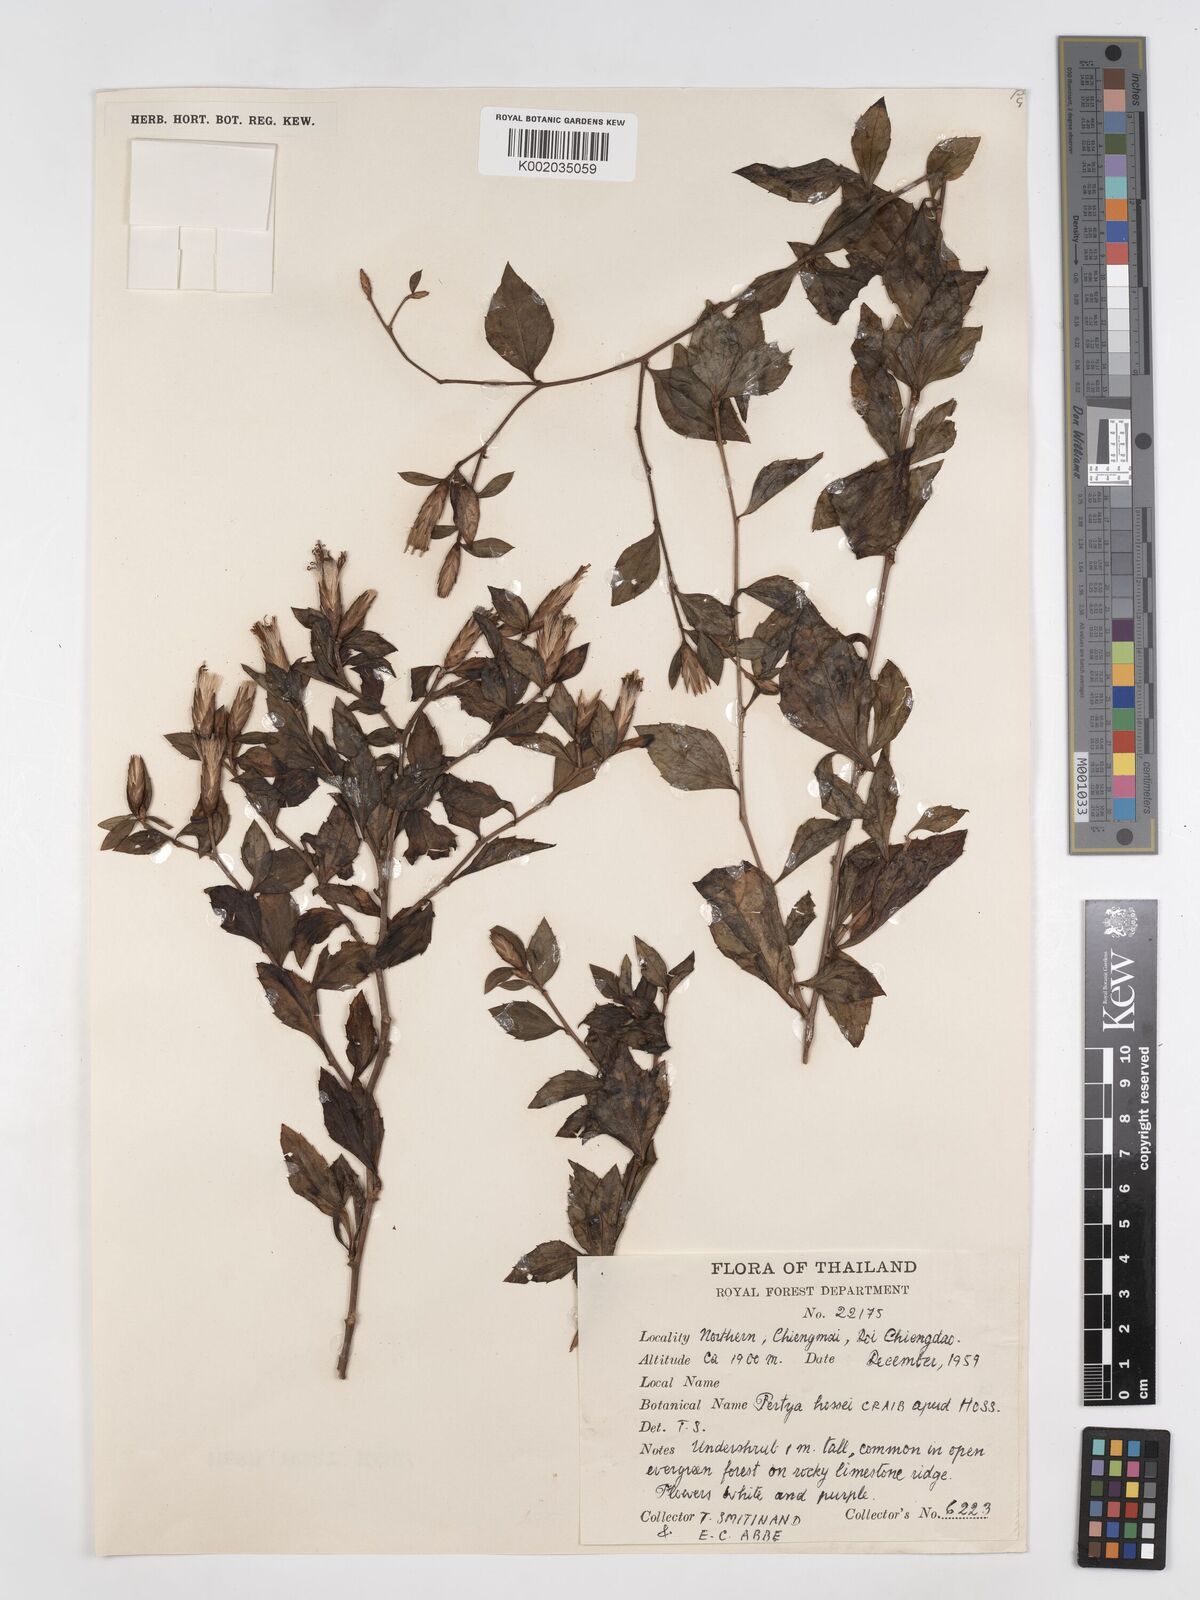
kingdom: Plantae
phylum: Tracheophyta
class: Magnoliopsida
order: Asterales
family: Asteraceae
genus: Pertya
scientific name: Pertya hossei
